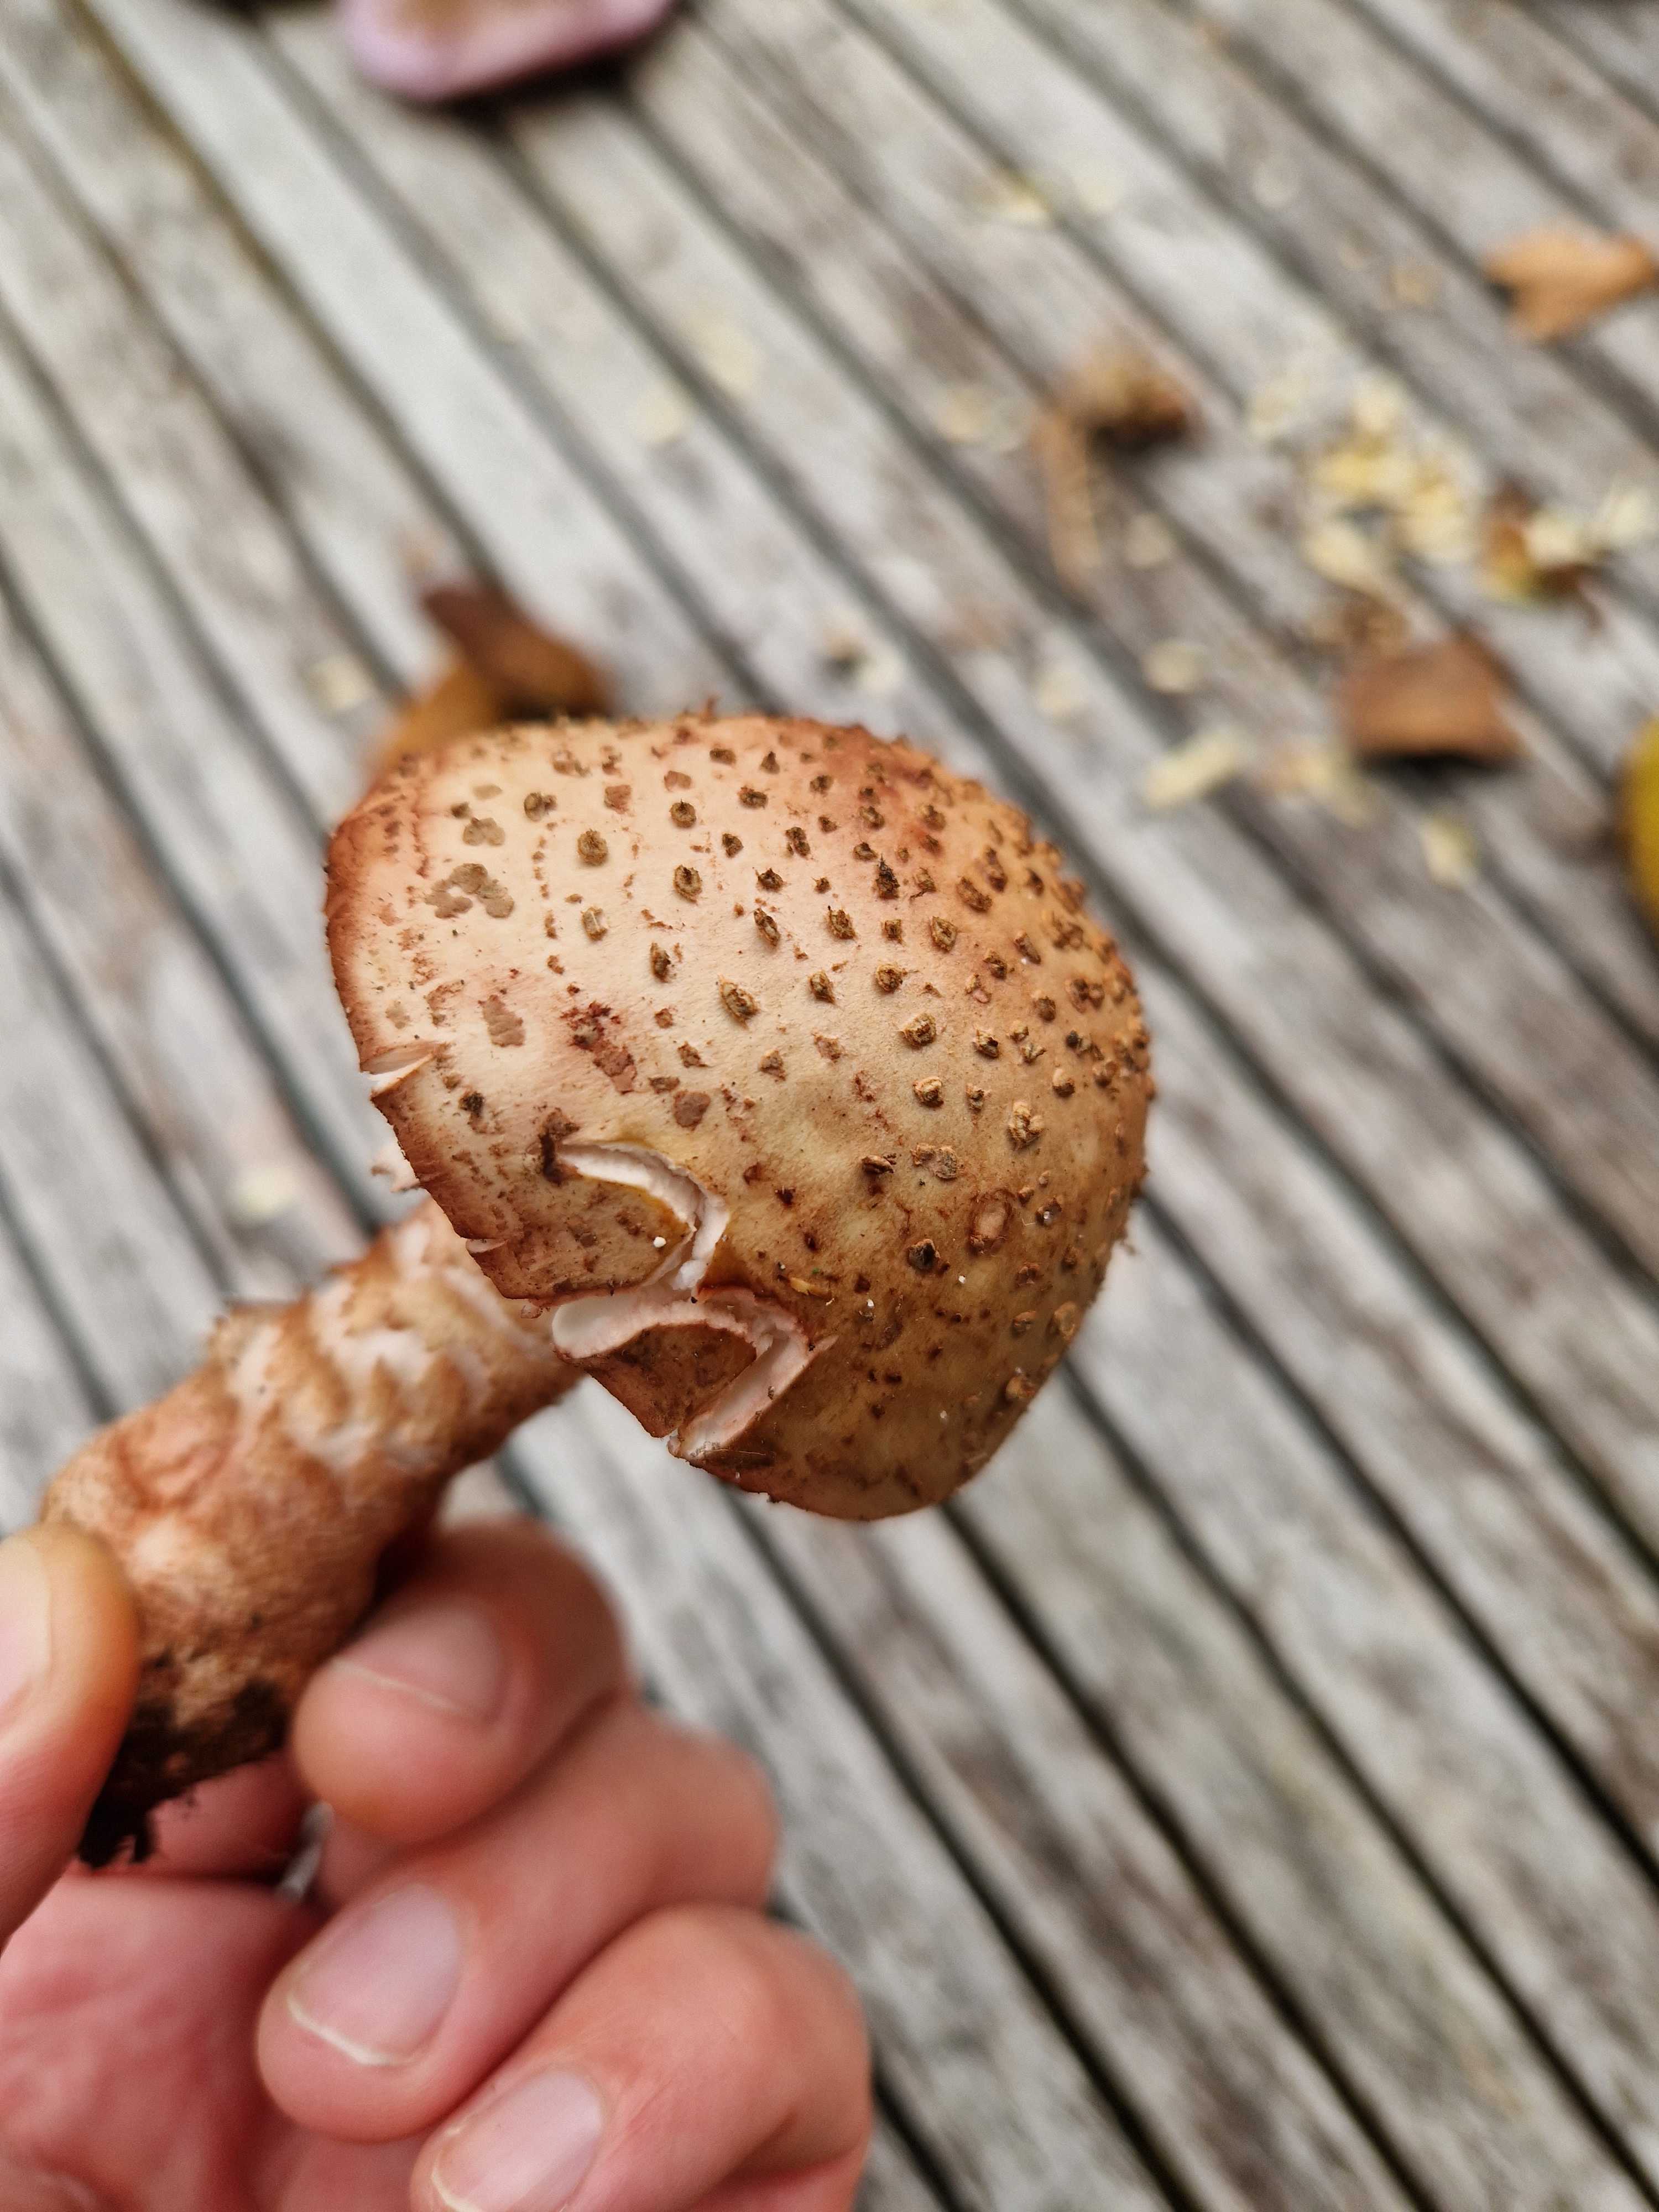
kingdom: Fungi
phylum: Basidiomycota
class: Agaricomycetes
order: Agaricales
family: Amanitaceae
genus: Amanita
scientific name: Amanita rubescens
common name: rødmende fluesvamp
